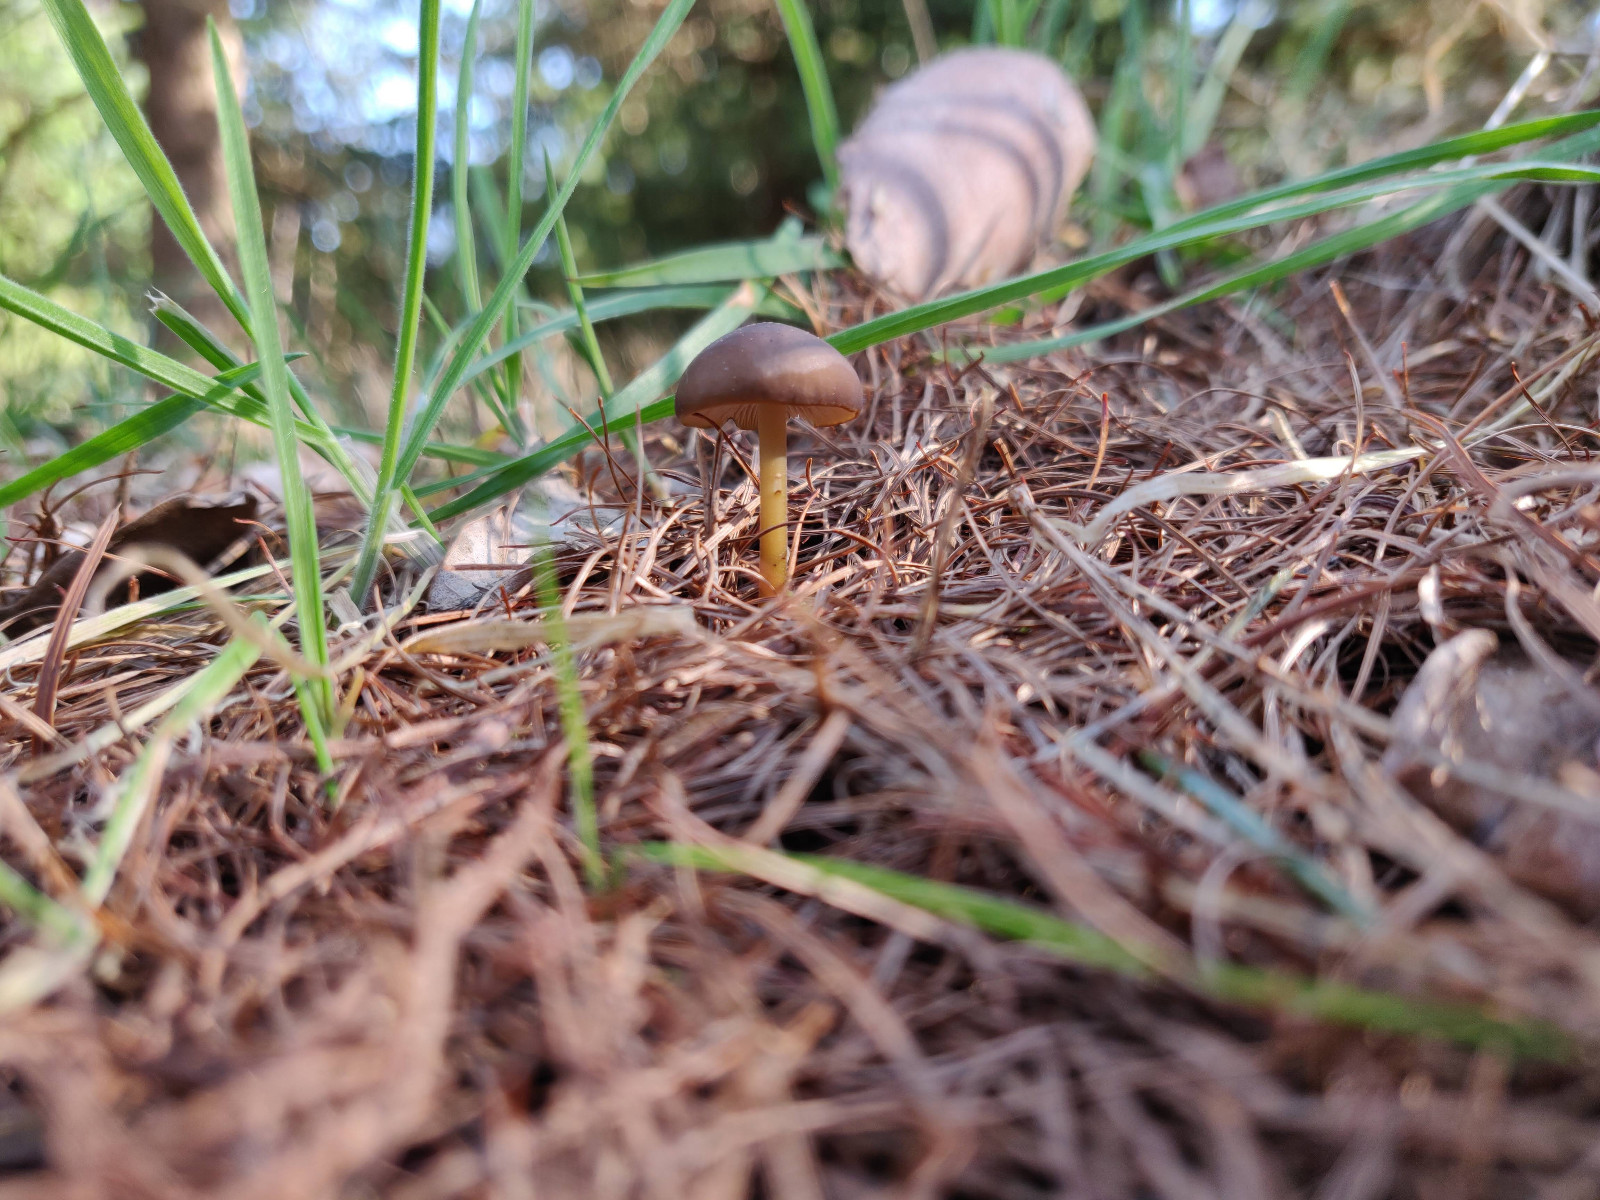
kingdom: Fungi
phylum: Basidiomycota
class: Agaricomycetes
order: Agaricales
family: Physalacriaceae
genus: Strobilurus
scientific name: Strobilurus
